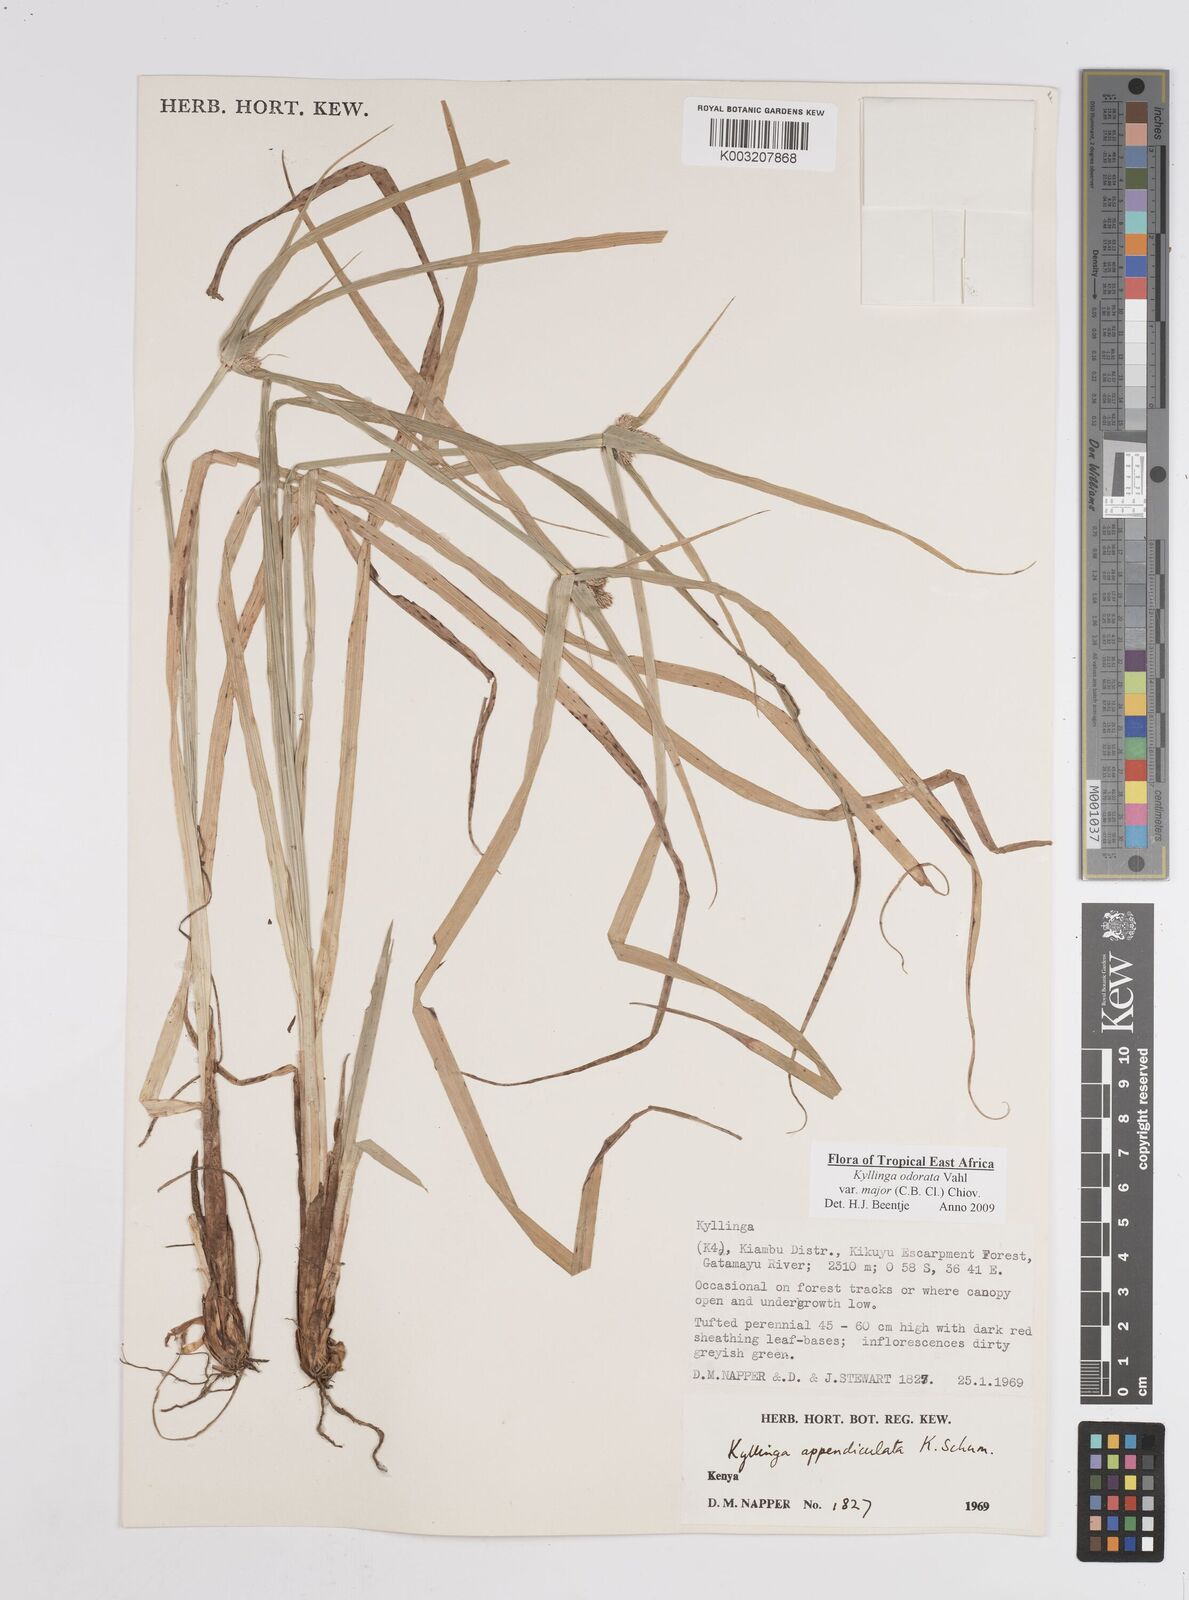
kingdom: Plantae
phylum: Tracheophyta
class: Liliopsida
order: Poales
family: Cyperaceae
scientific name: Cyperaceae
